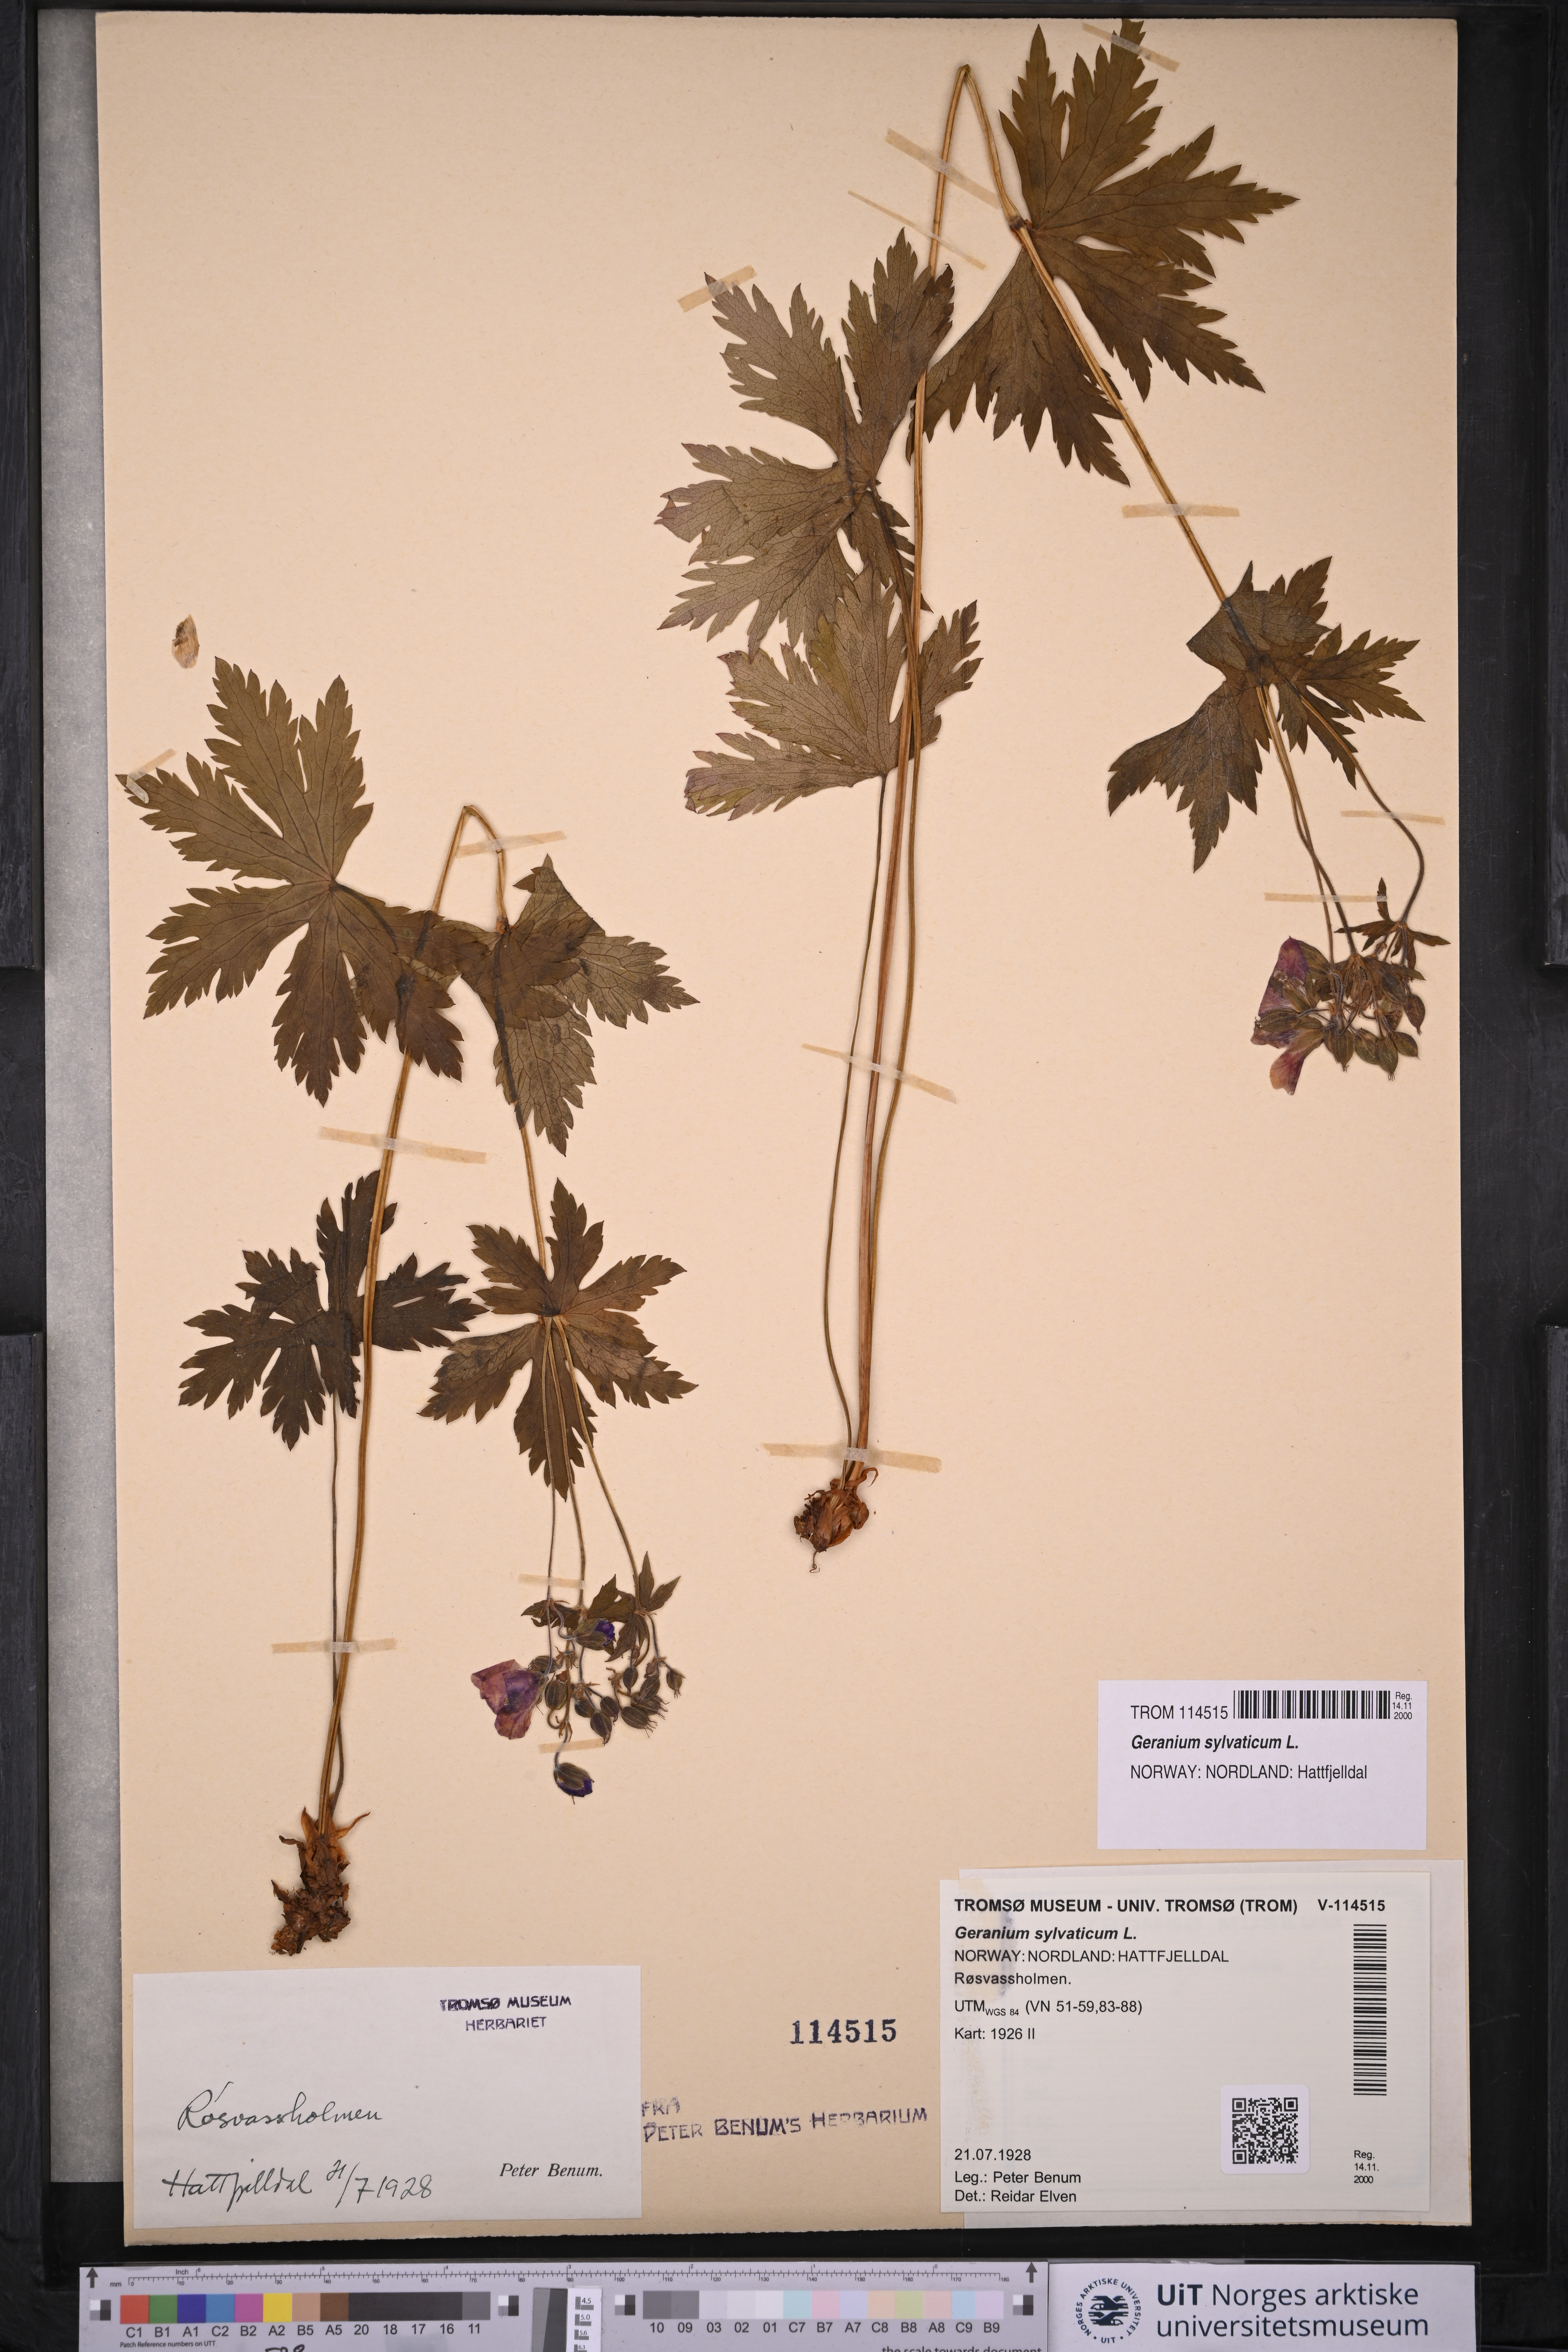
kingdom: Plantae
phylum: Tracheophyta
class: Magnoliopsida
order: Geraniales
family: Geraniaceae
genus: Geranium
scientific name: Geranium sylvaticum
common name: Wood crane's-bill
